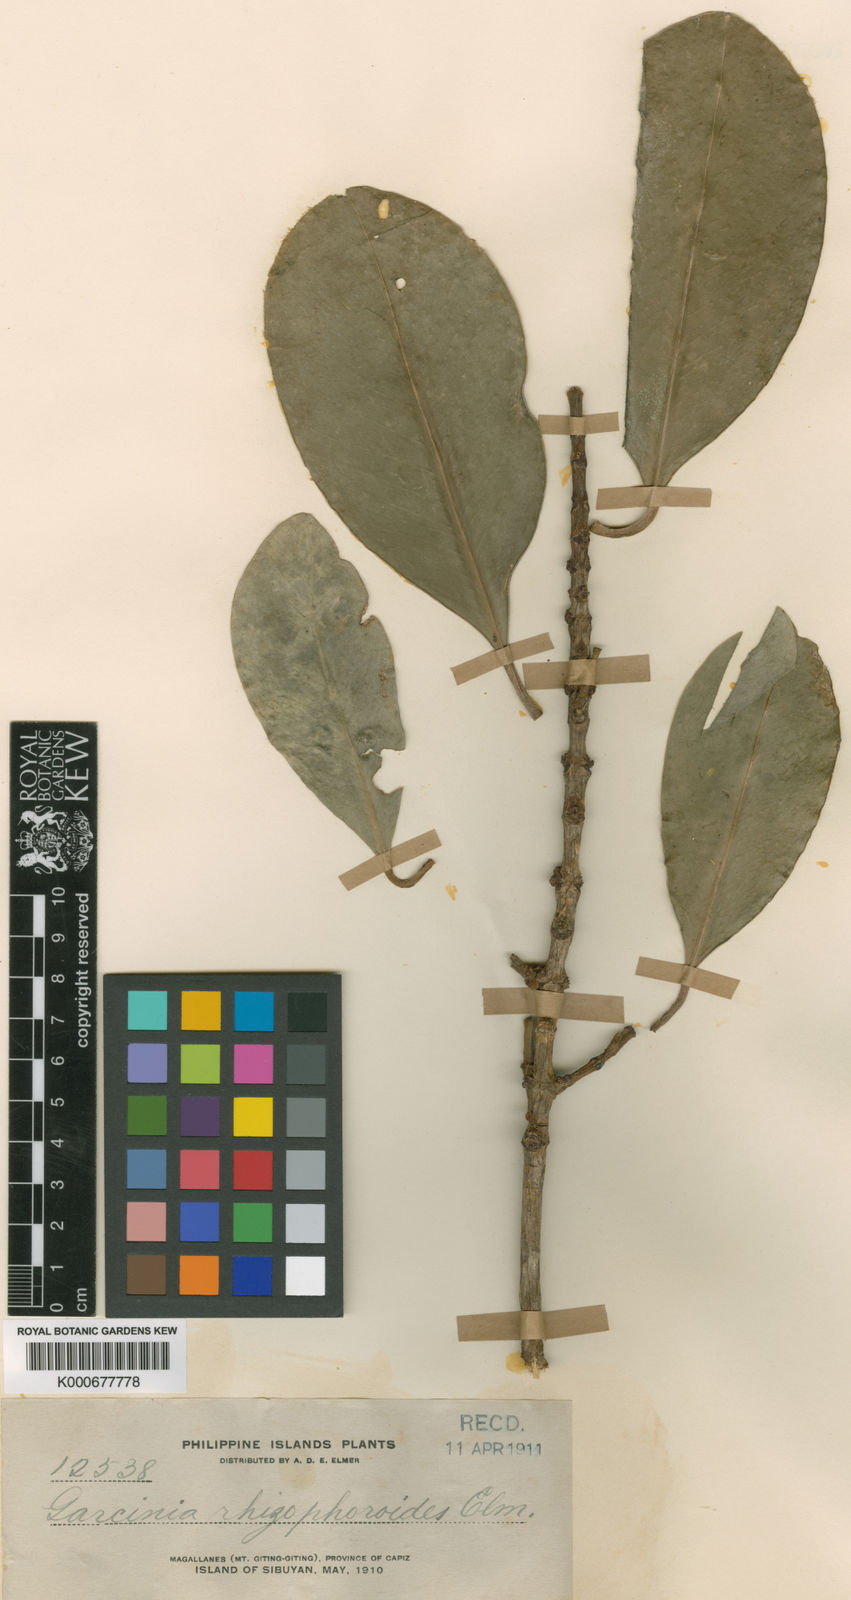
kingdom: Plantae
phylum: Tracheophyta
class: Magnoliopsida
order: Malpighiales
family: Clusiaceae
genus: Garcinia
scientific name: Garcinia rhizophoroides
